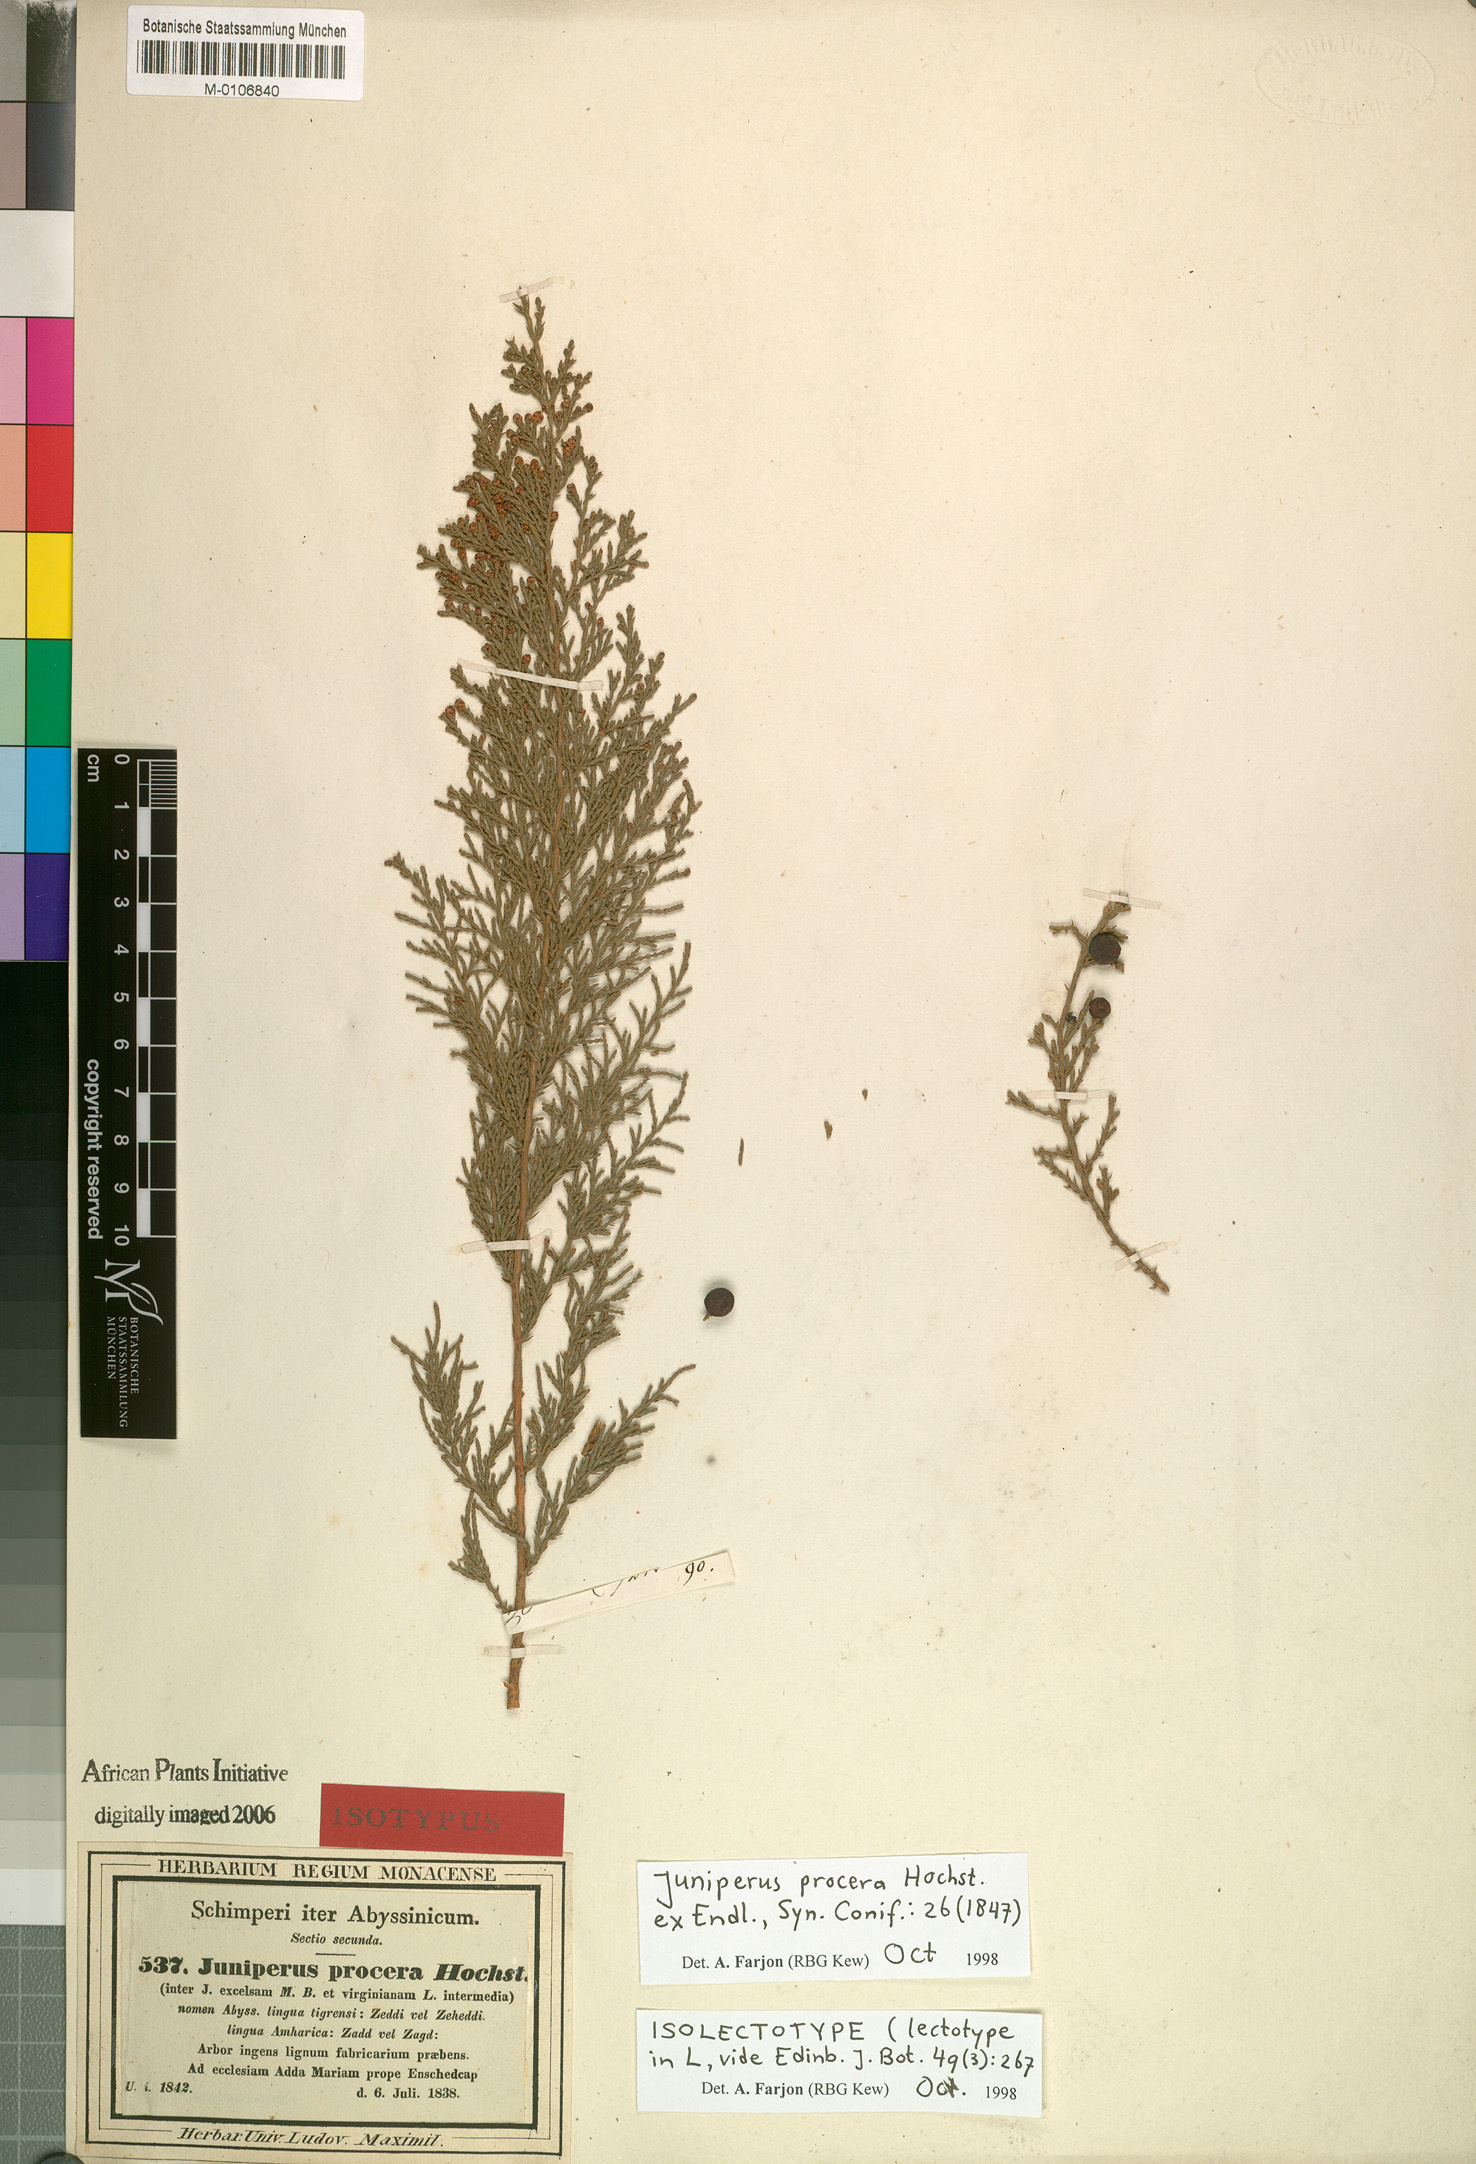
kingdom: Plantae
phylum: Tracheophyta
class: Pinopsida
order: Pinales
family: Cupressaceae
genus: Juniperus
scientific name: Juniperus procera
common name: African juniper
